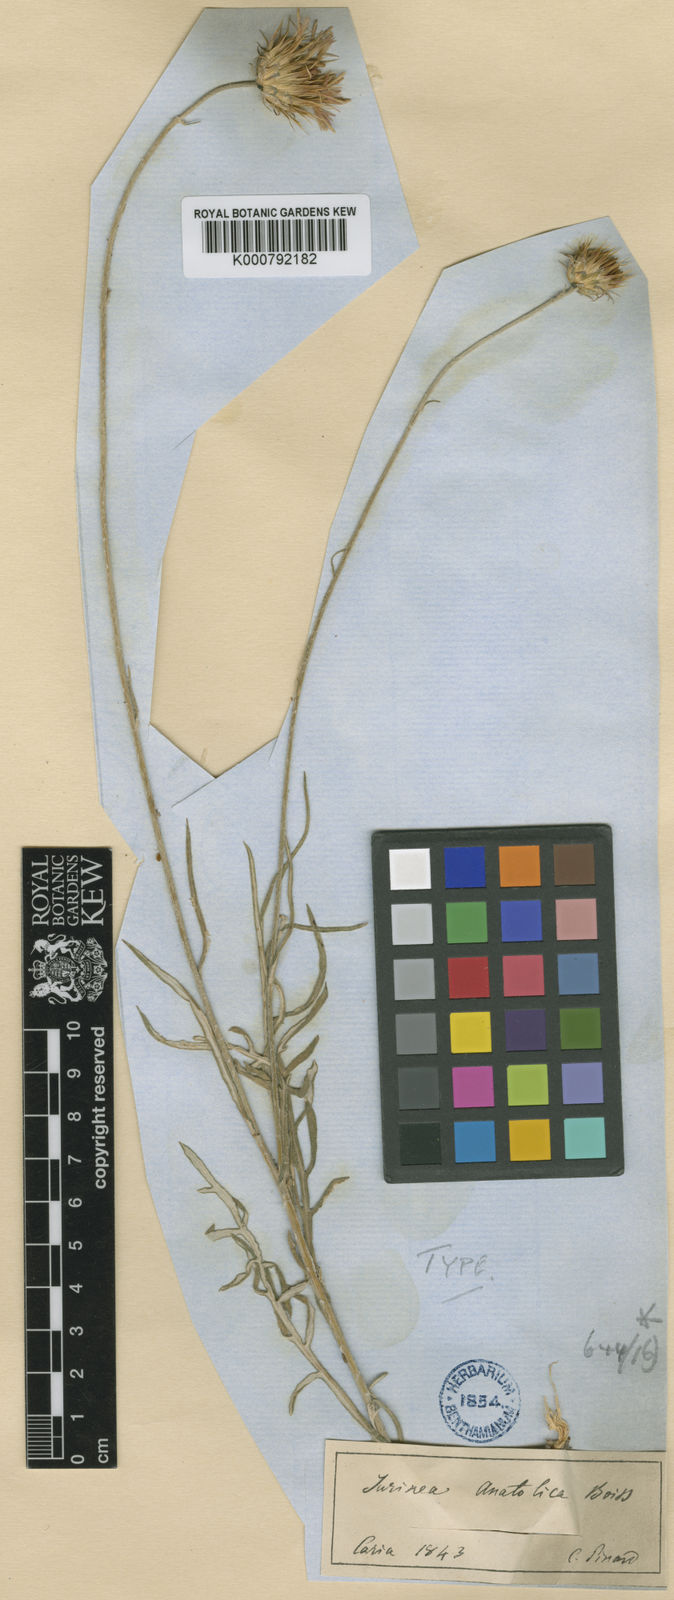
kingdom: Plantae
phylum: Tracheophyta
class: Magnoliopsida
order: Asterales
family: Asteraceae
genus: Jurinea
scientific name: Jurinea consanguinea
